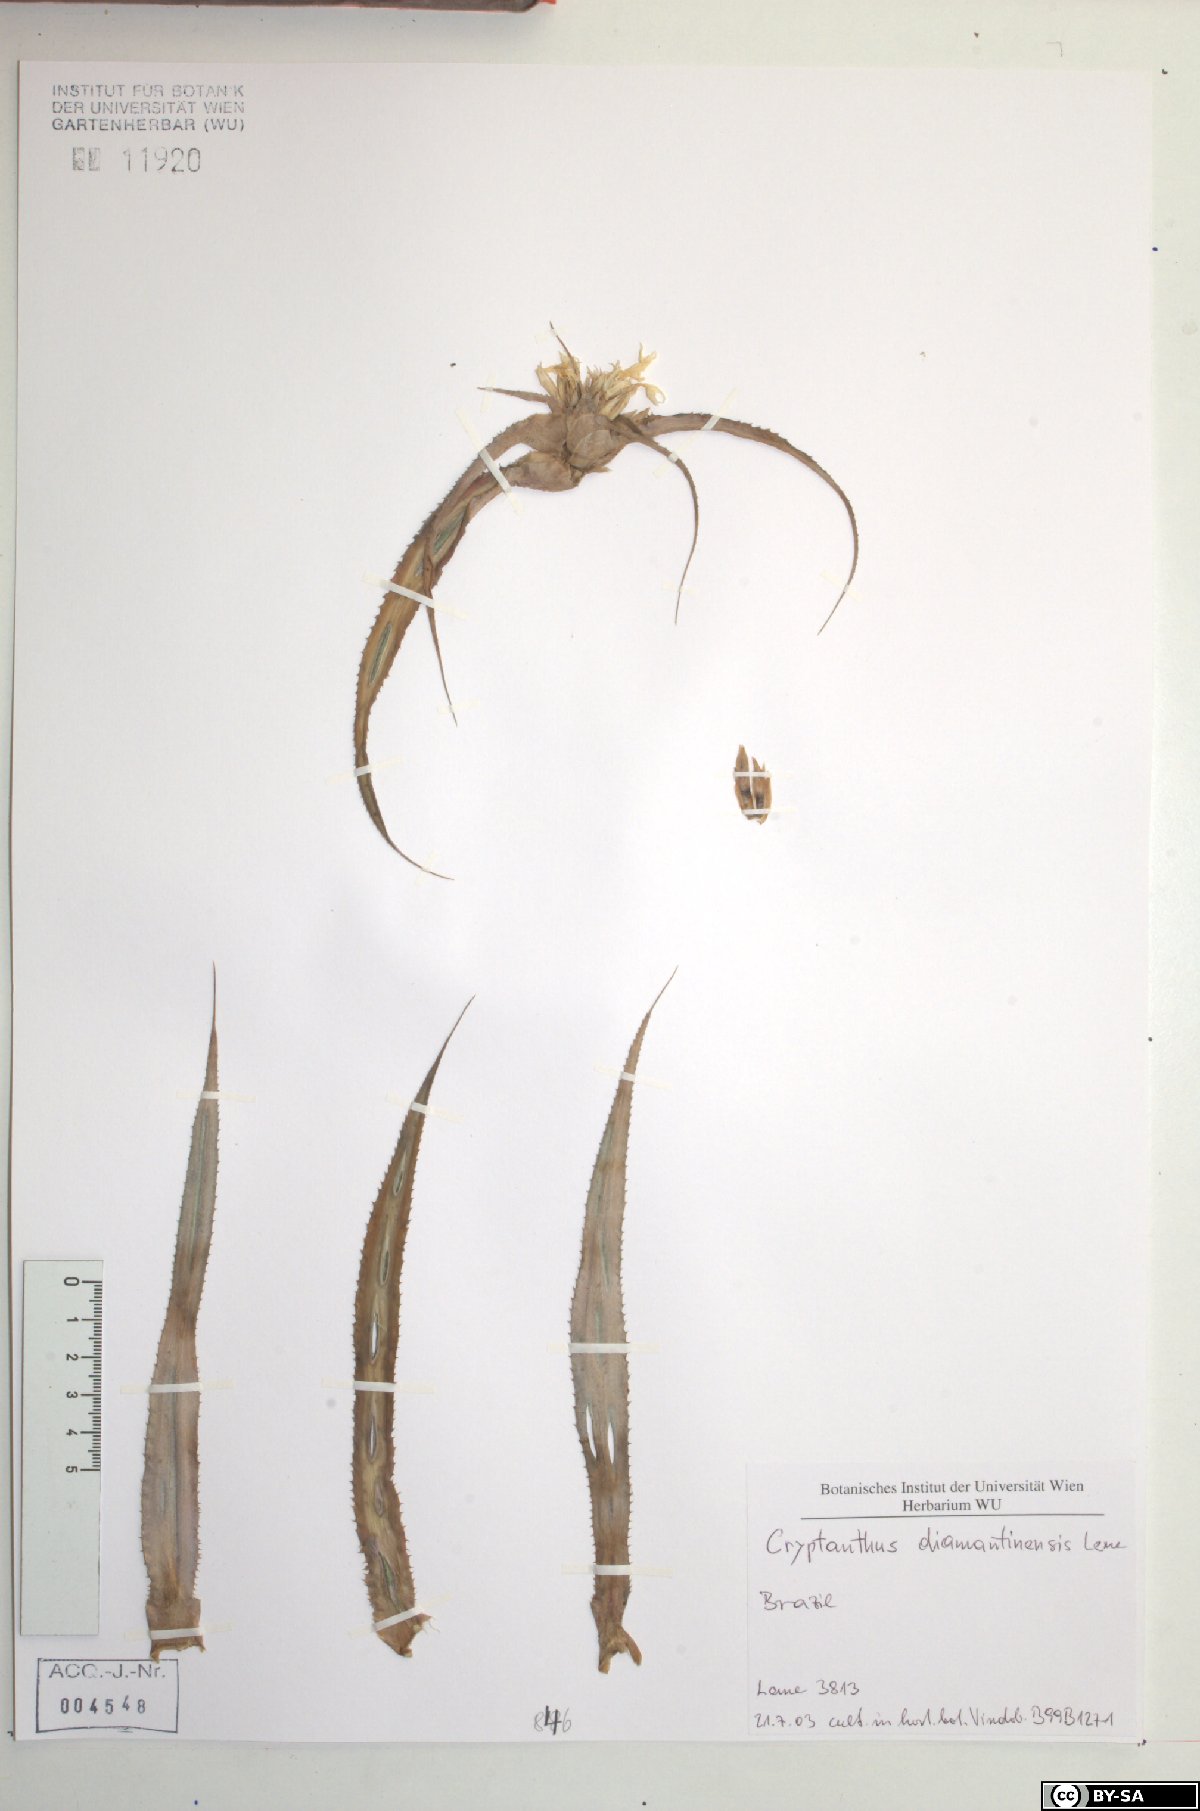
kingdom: Plantae
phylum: Tracheophyta
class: Liliopsida
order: Poales
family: Bromeliaceae
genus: Cryptanthus
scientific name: Cryptanthus diamantinensis
